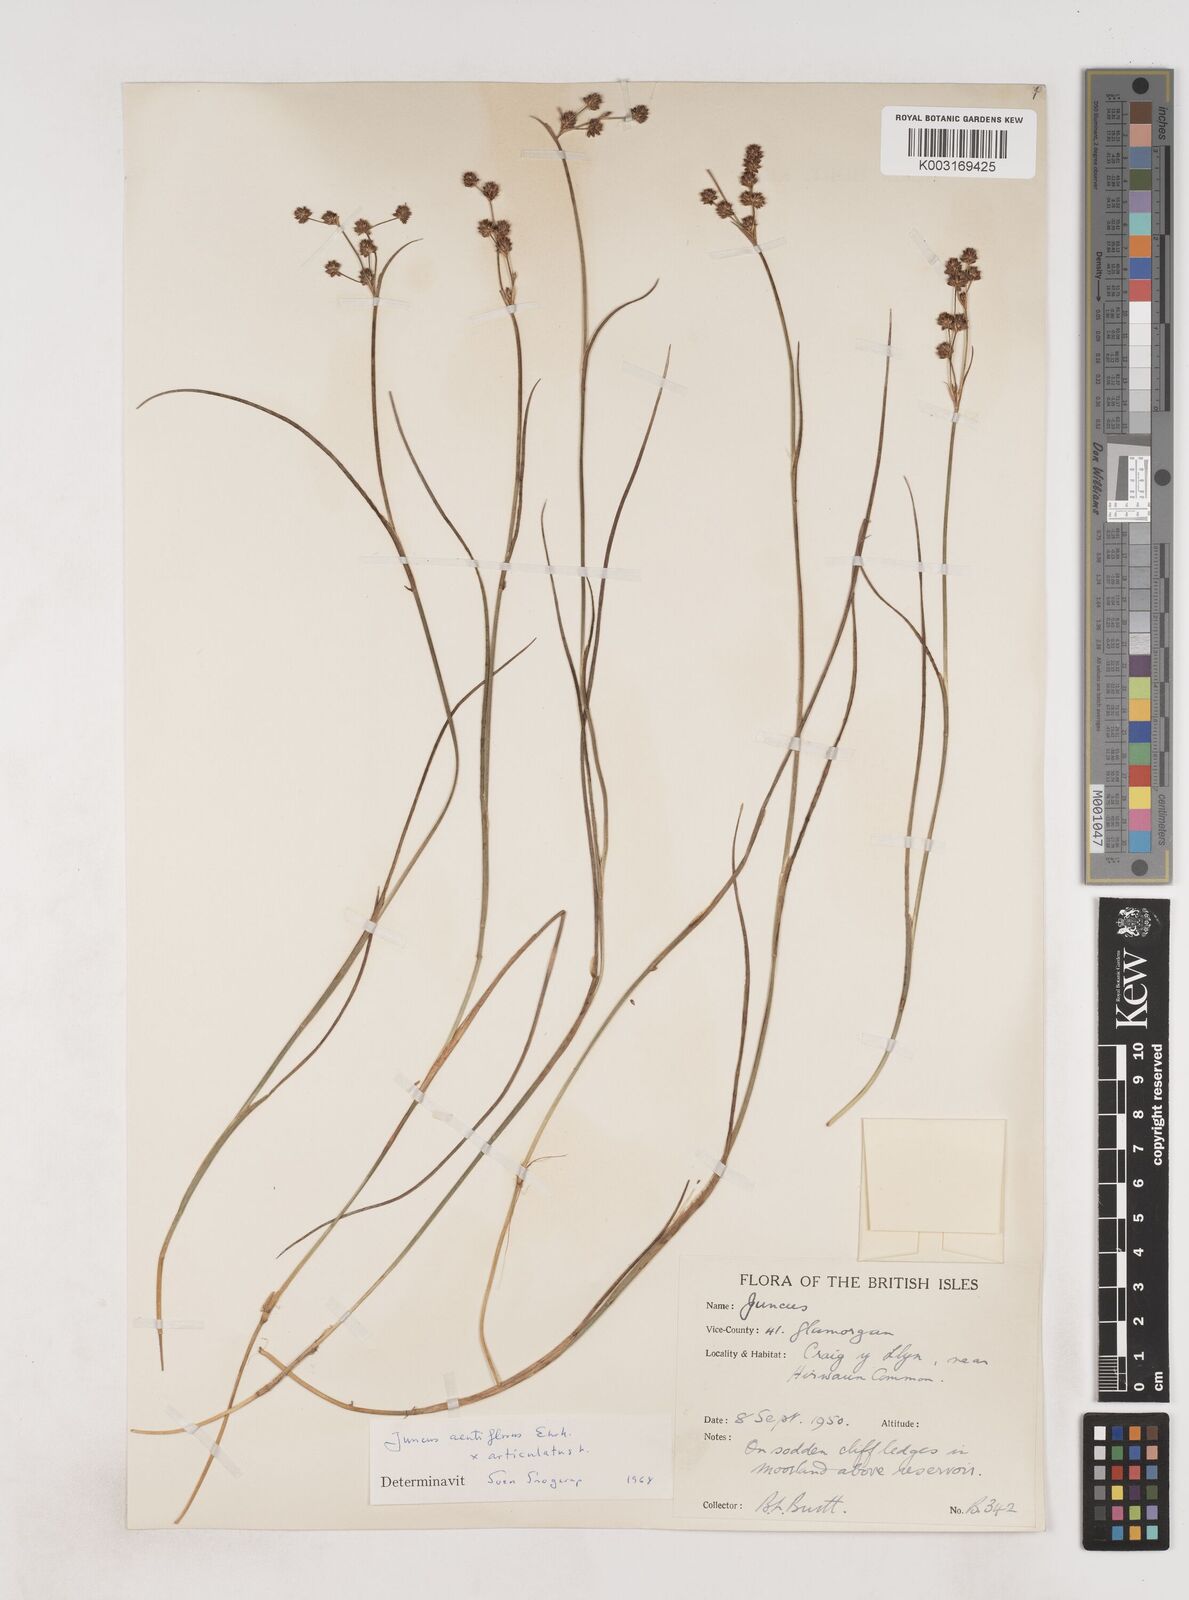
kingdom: Plantae
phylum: Tracheophyta
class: Liliopsida
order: Poales
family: Juncaceae
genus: Juncus
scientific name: Juncus acutiflorus
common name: Sharp-flowered rush
